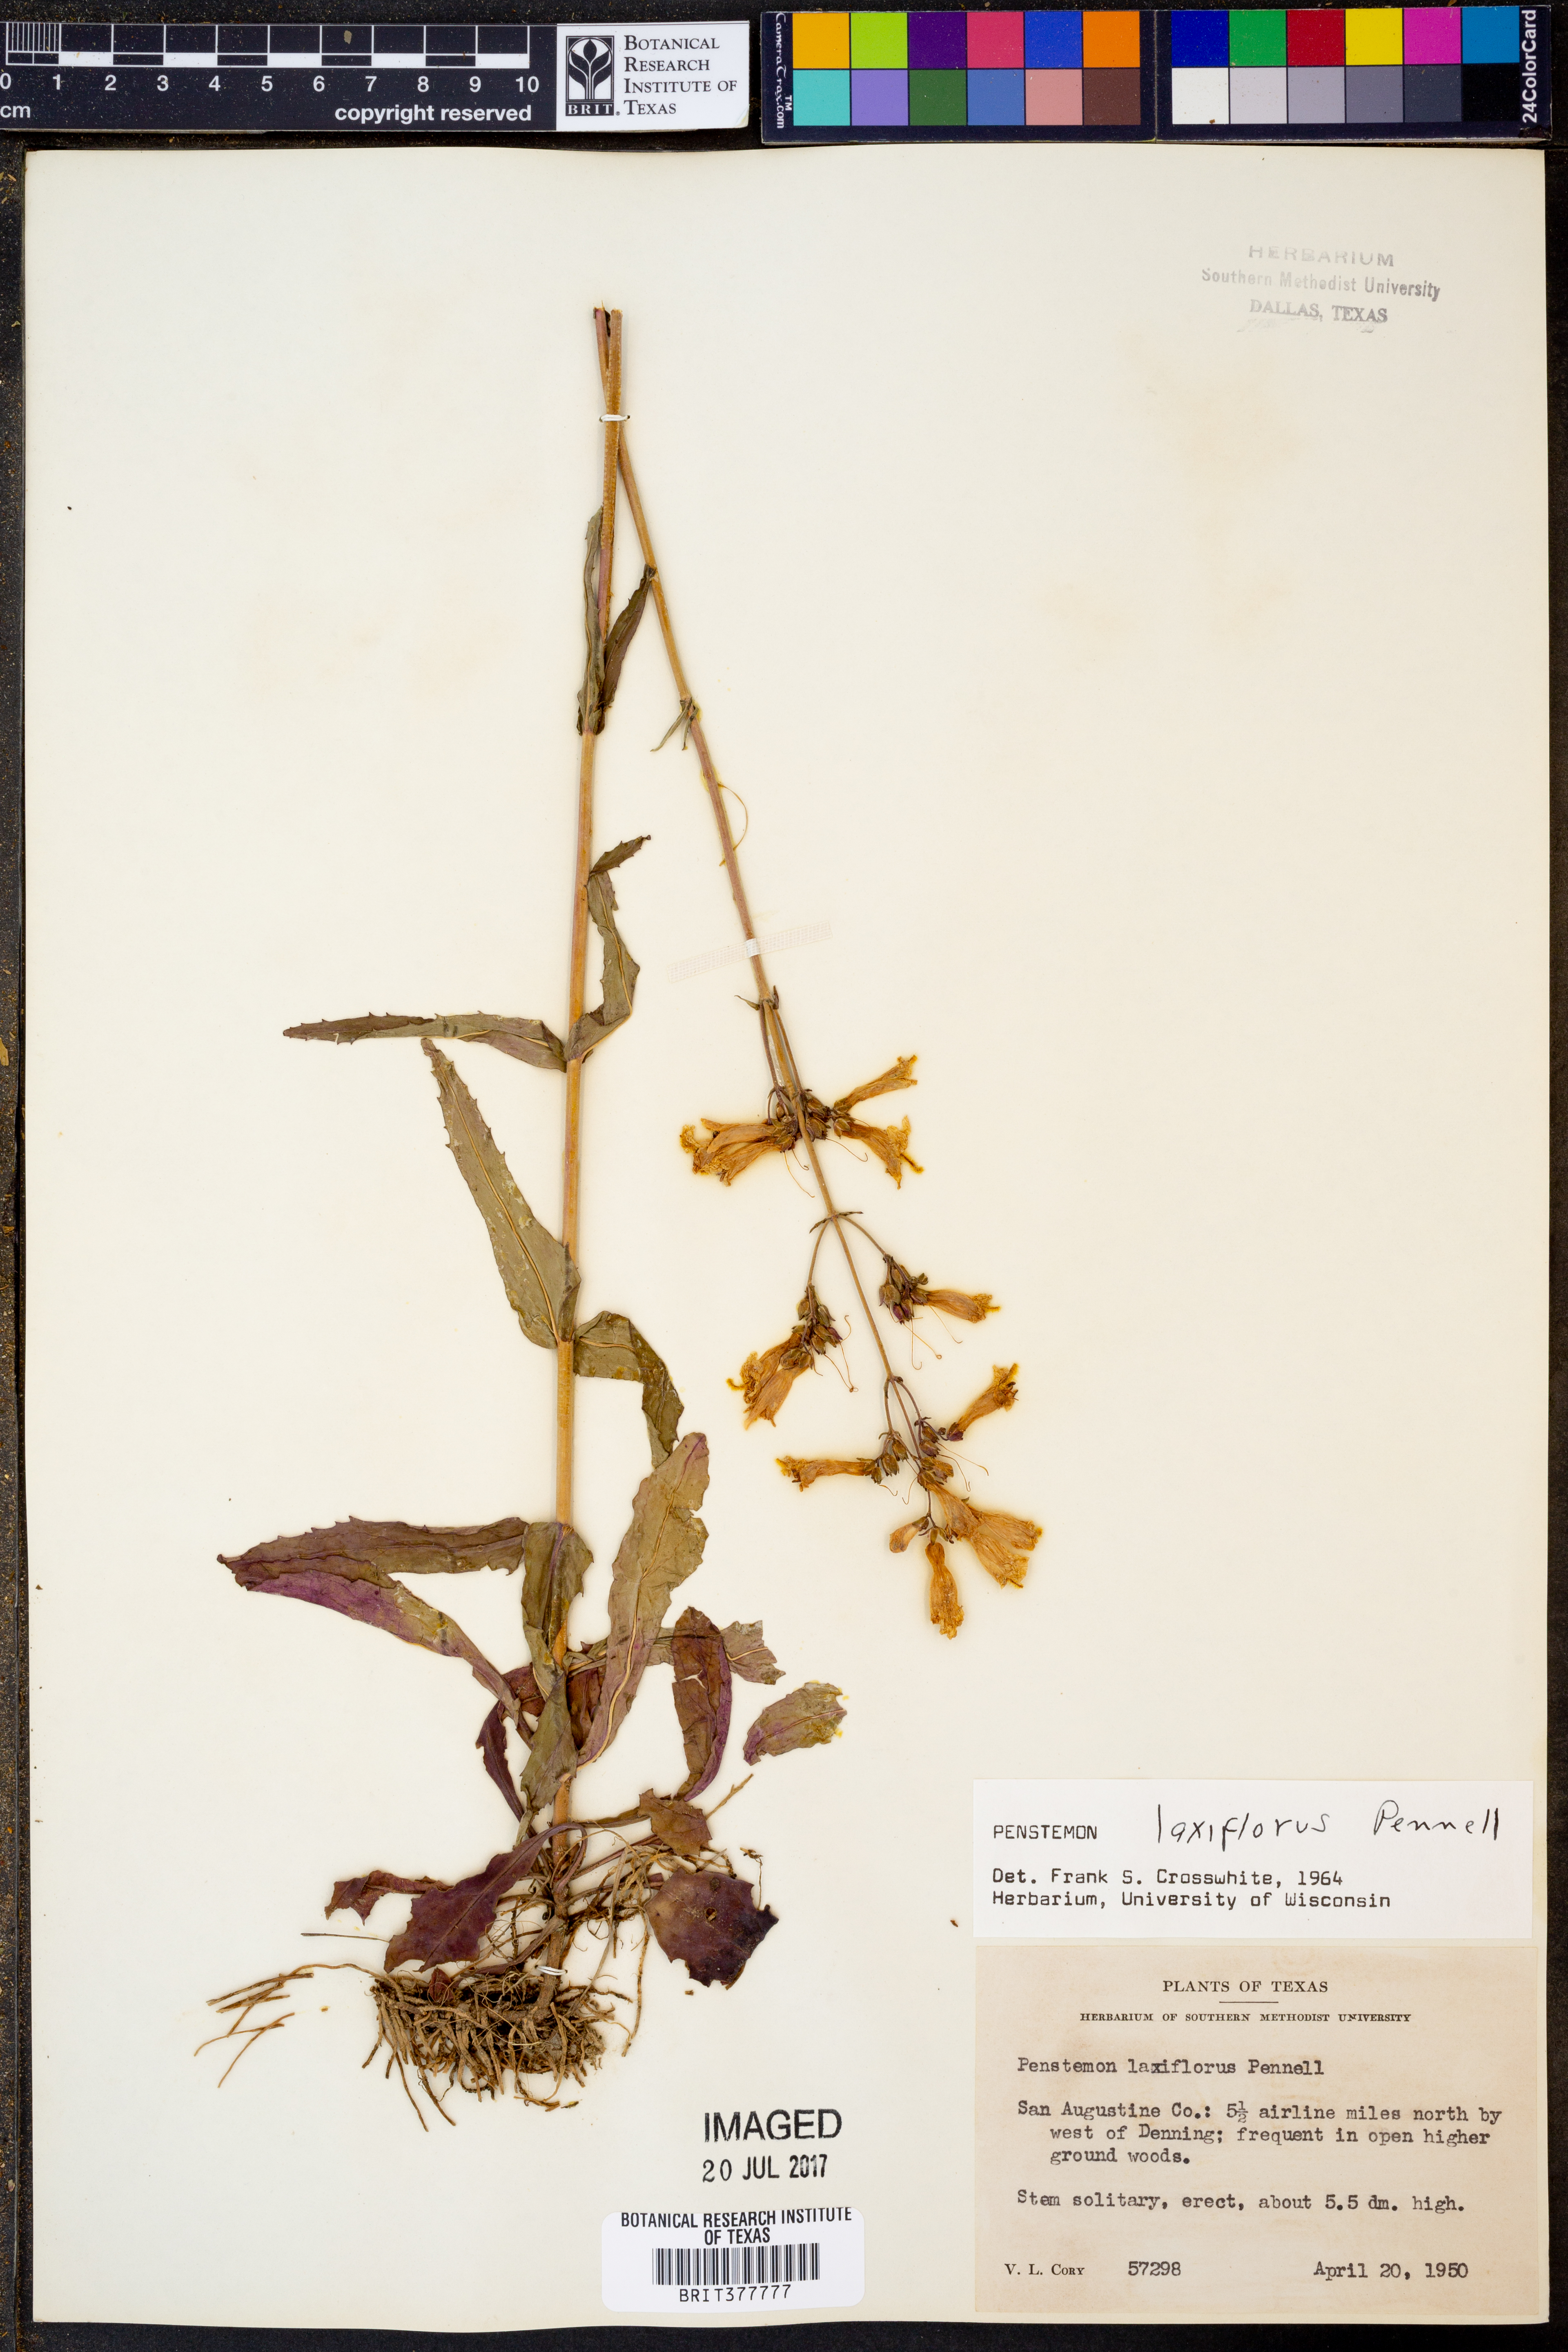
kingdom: Plantae
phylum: Tracheophyta
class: Magnoliopsida
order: Lamiales
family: Plantaginaceae
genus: Penstemon
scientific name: Penstemon laxiflorus
